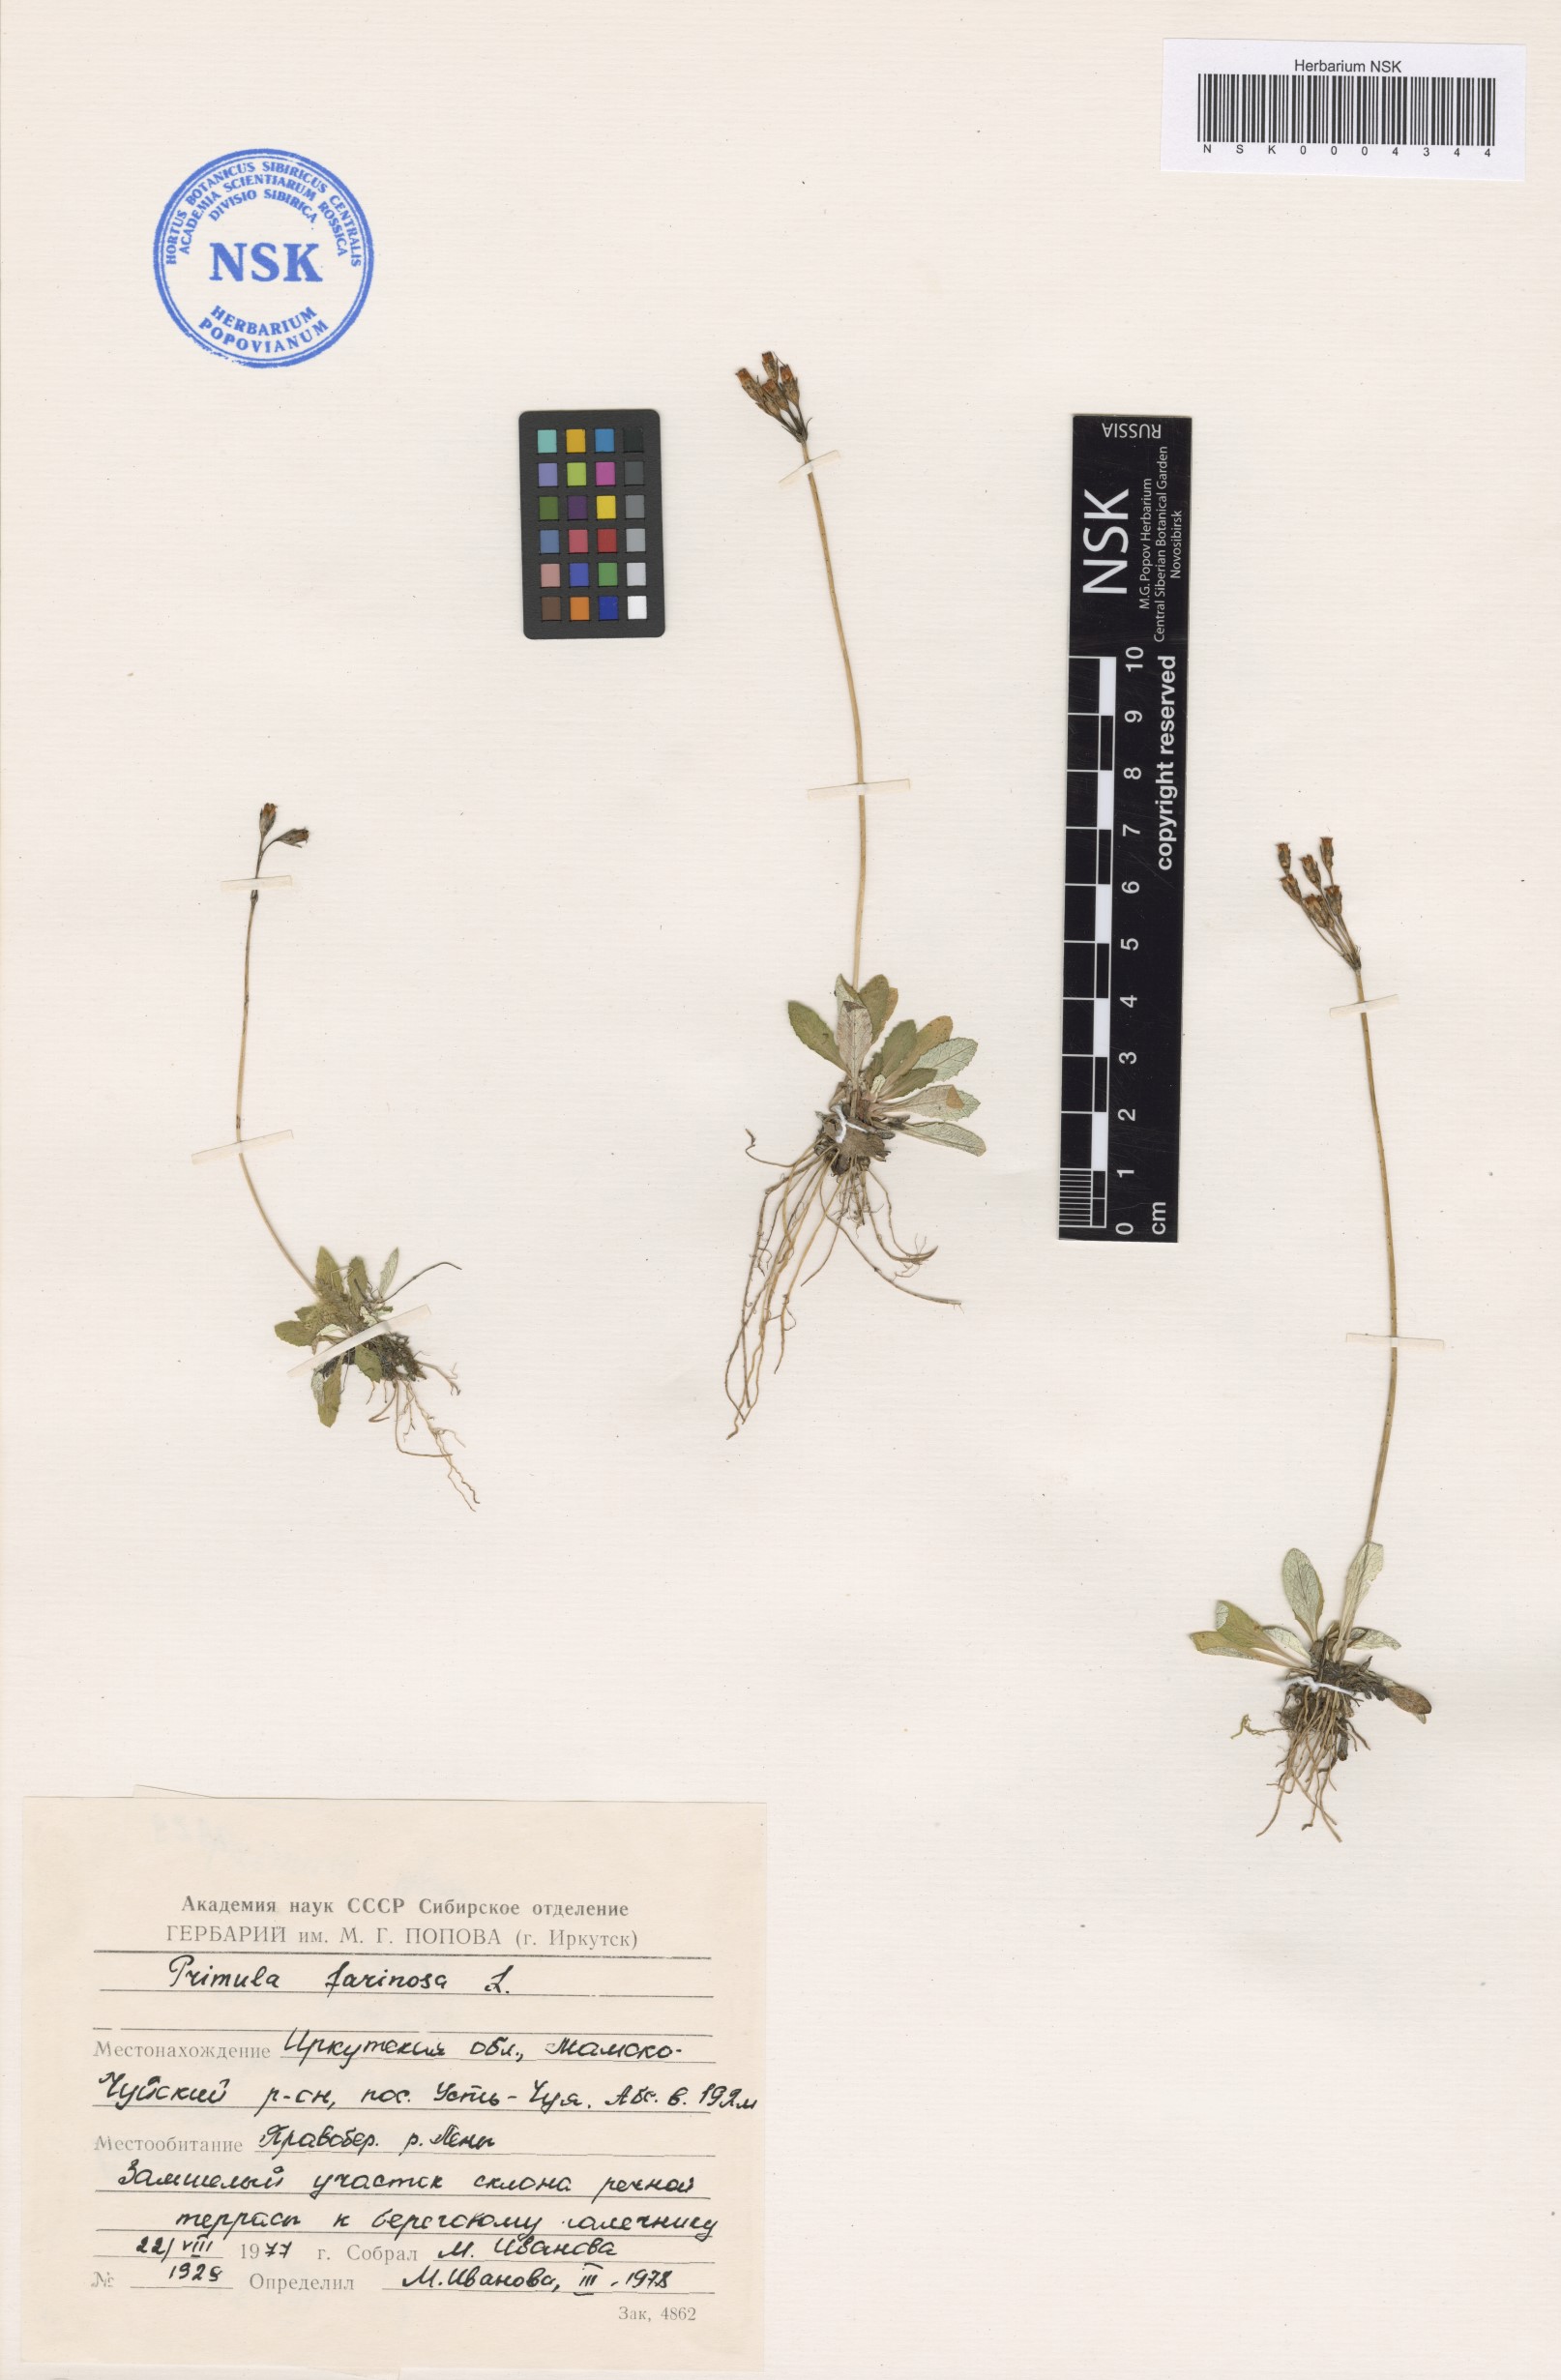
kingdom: Plantae
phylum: Tracheophyta
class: Magnoliopsida
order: Ericales
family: Primulaceae
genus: Primula
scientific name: Primula farinosa
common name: Bird's-eye primrose
